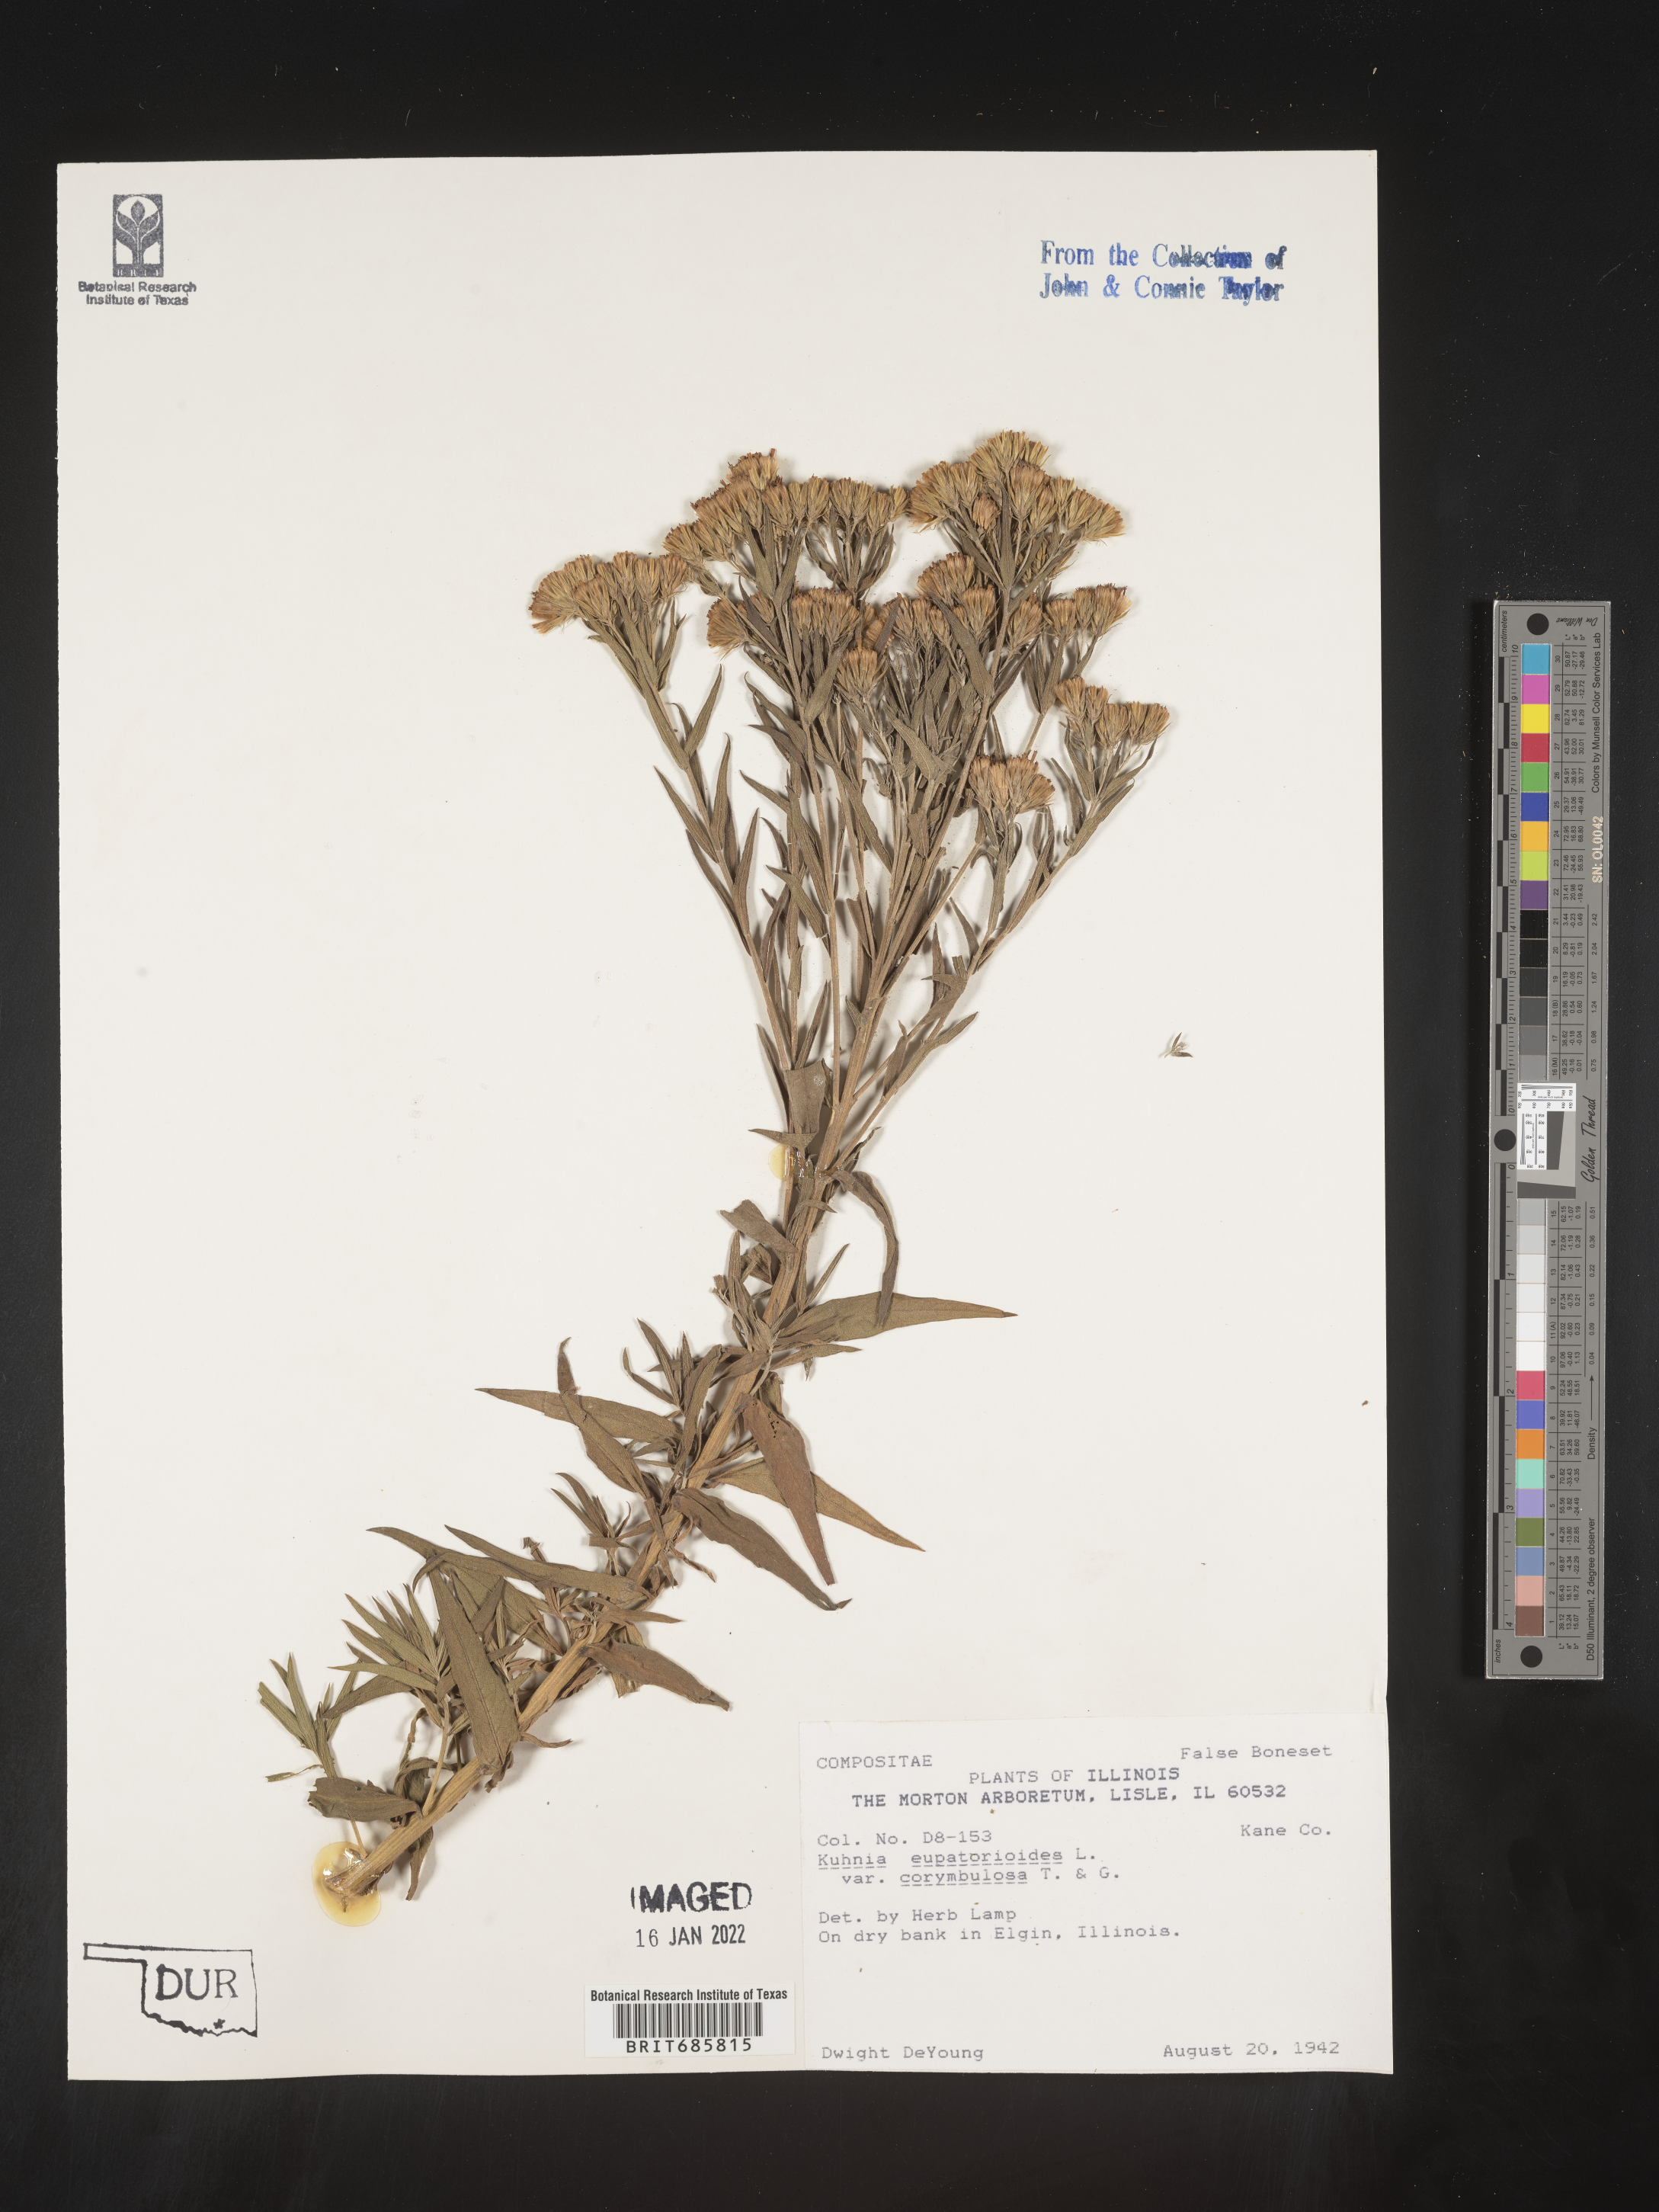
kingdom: Plantae
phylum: Tracheophyta
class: Magnoliopsida
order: Asterales
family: Asteraceae
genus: Brickellia
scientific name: Brickellia eupatorioides
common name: False boneset
